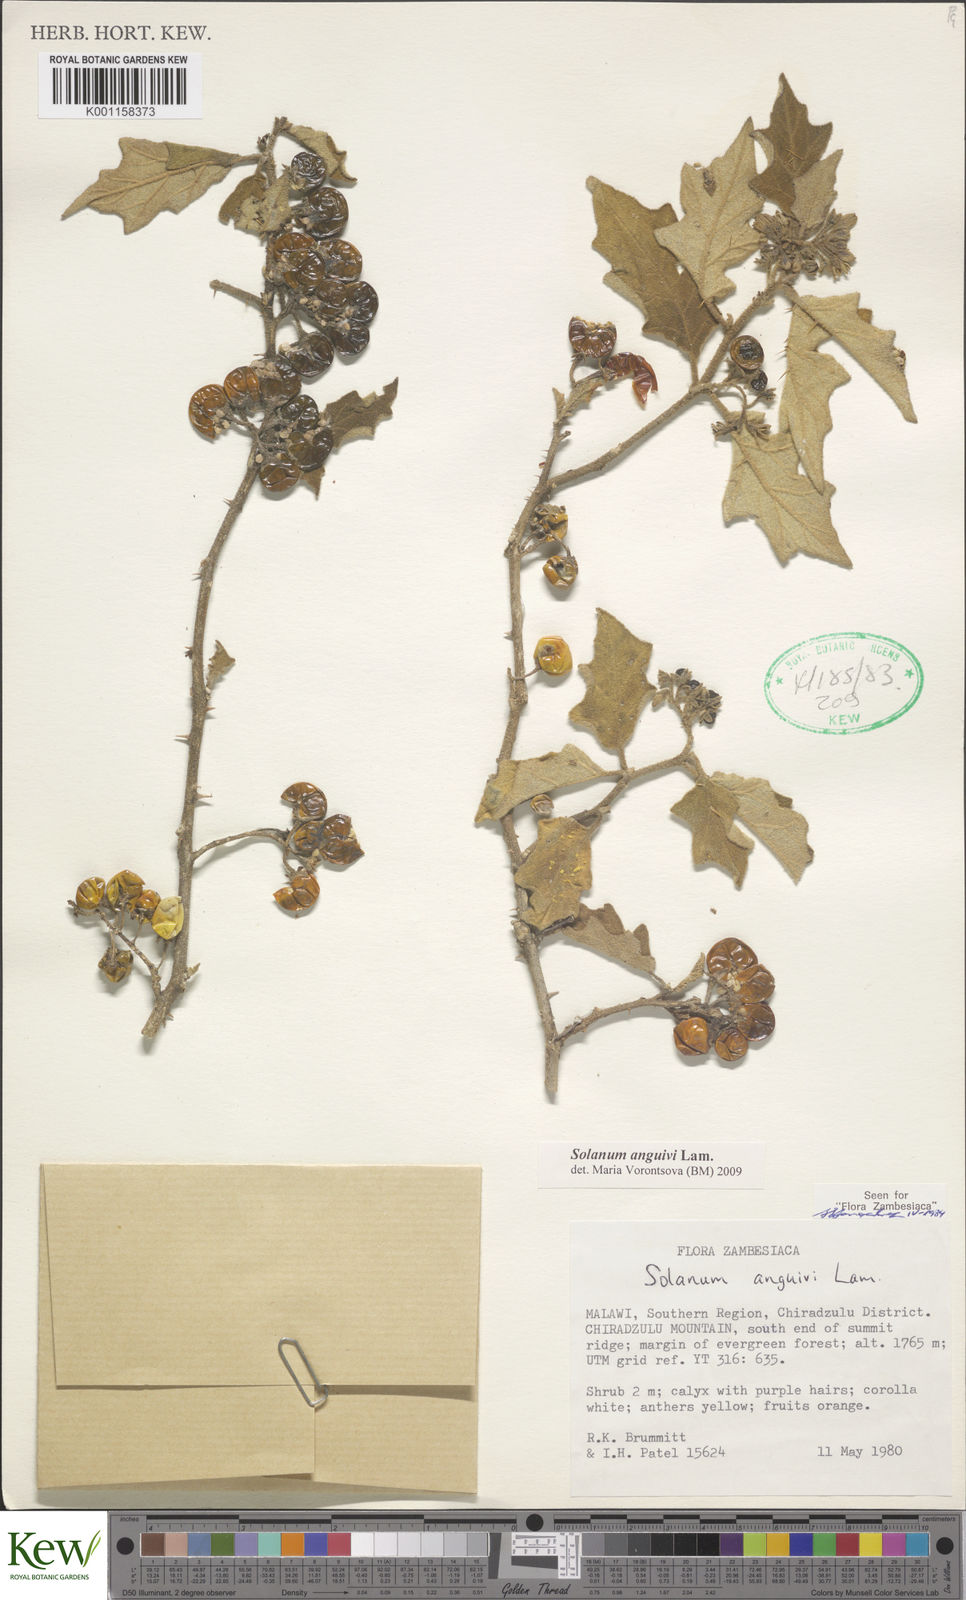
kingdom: Plantae
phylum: Tracheophyta
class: Magnoliopsida
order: Solanales
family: Solanaceae
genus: Solanum
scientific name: Solanum anguivi
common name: Forest bitterberry
